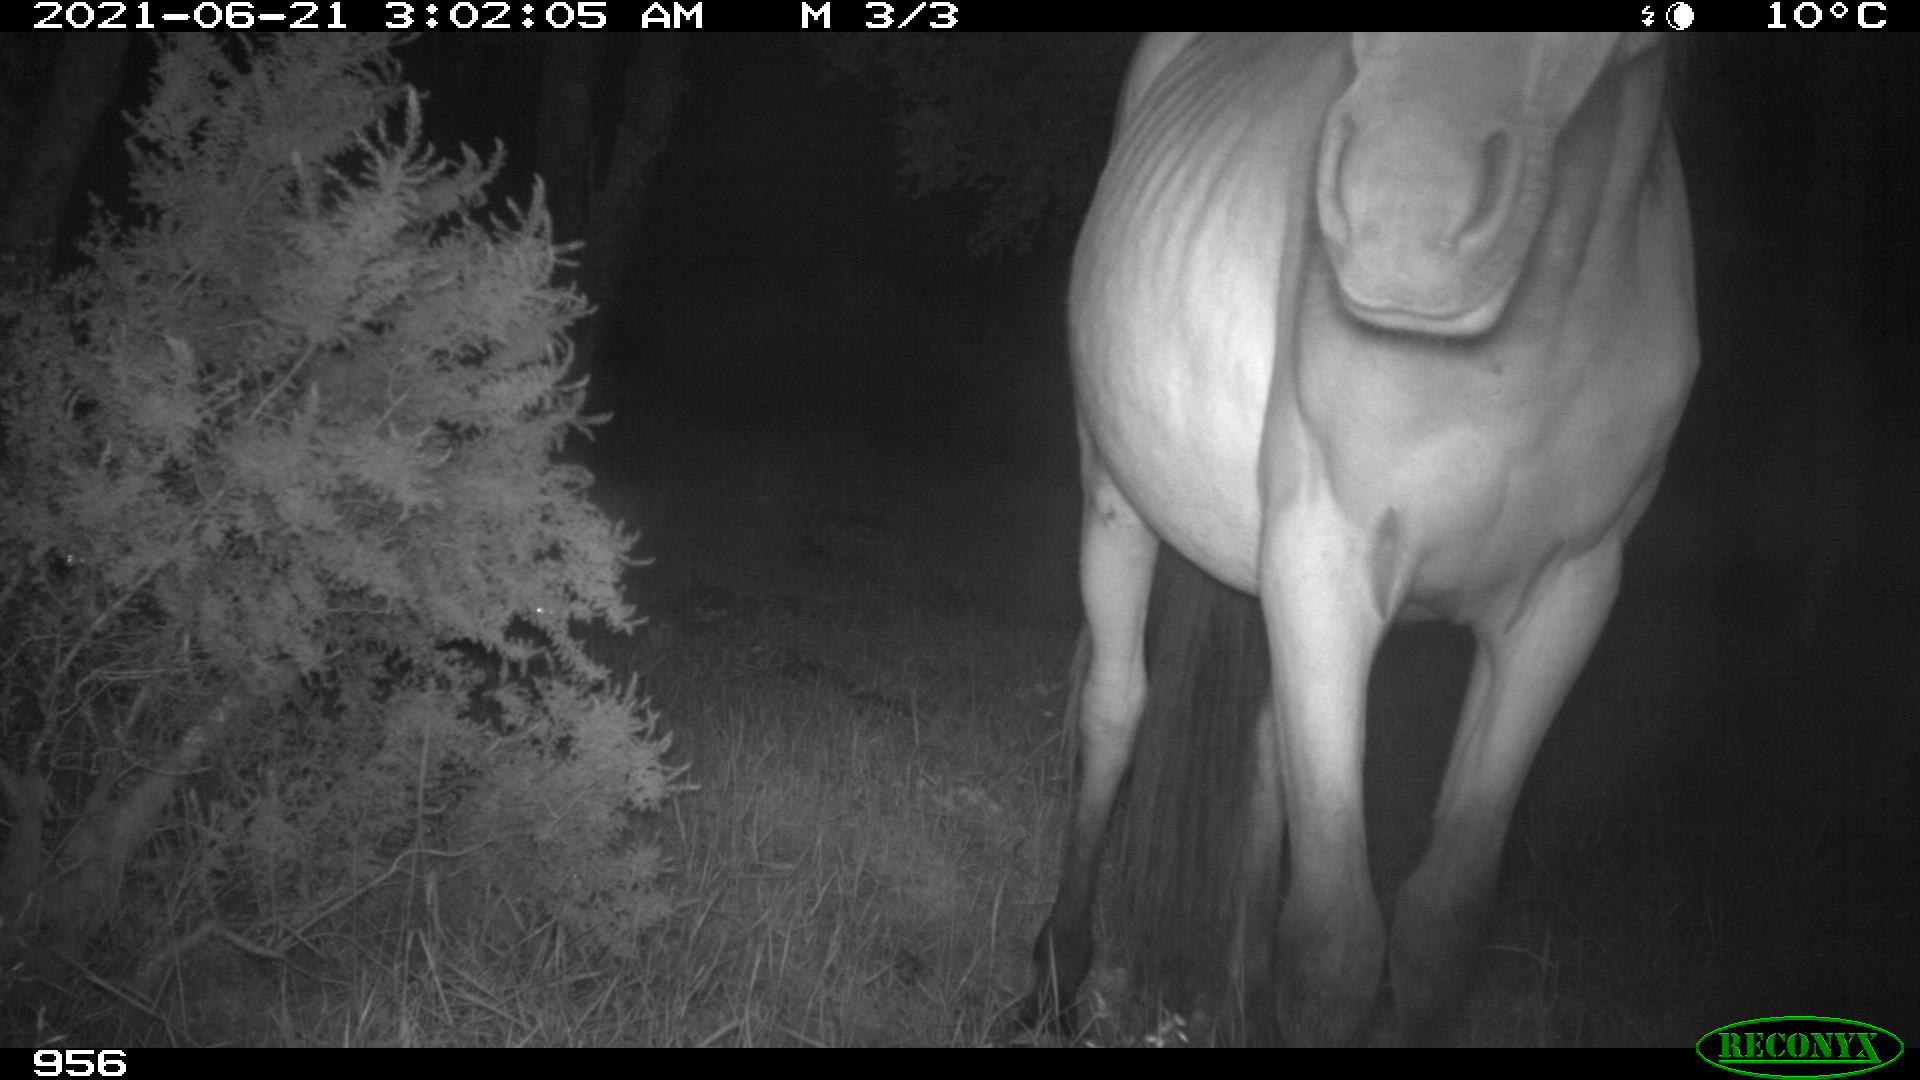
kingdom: Animalia
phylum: Chordata
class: Mammalia
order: Perissodactyla
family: Equidae
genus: Equus
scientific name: Equus caballus
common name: Horse
